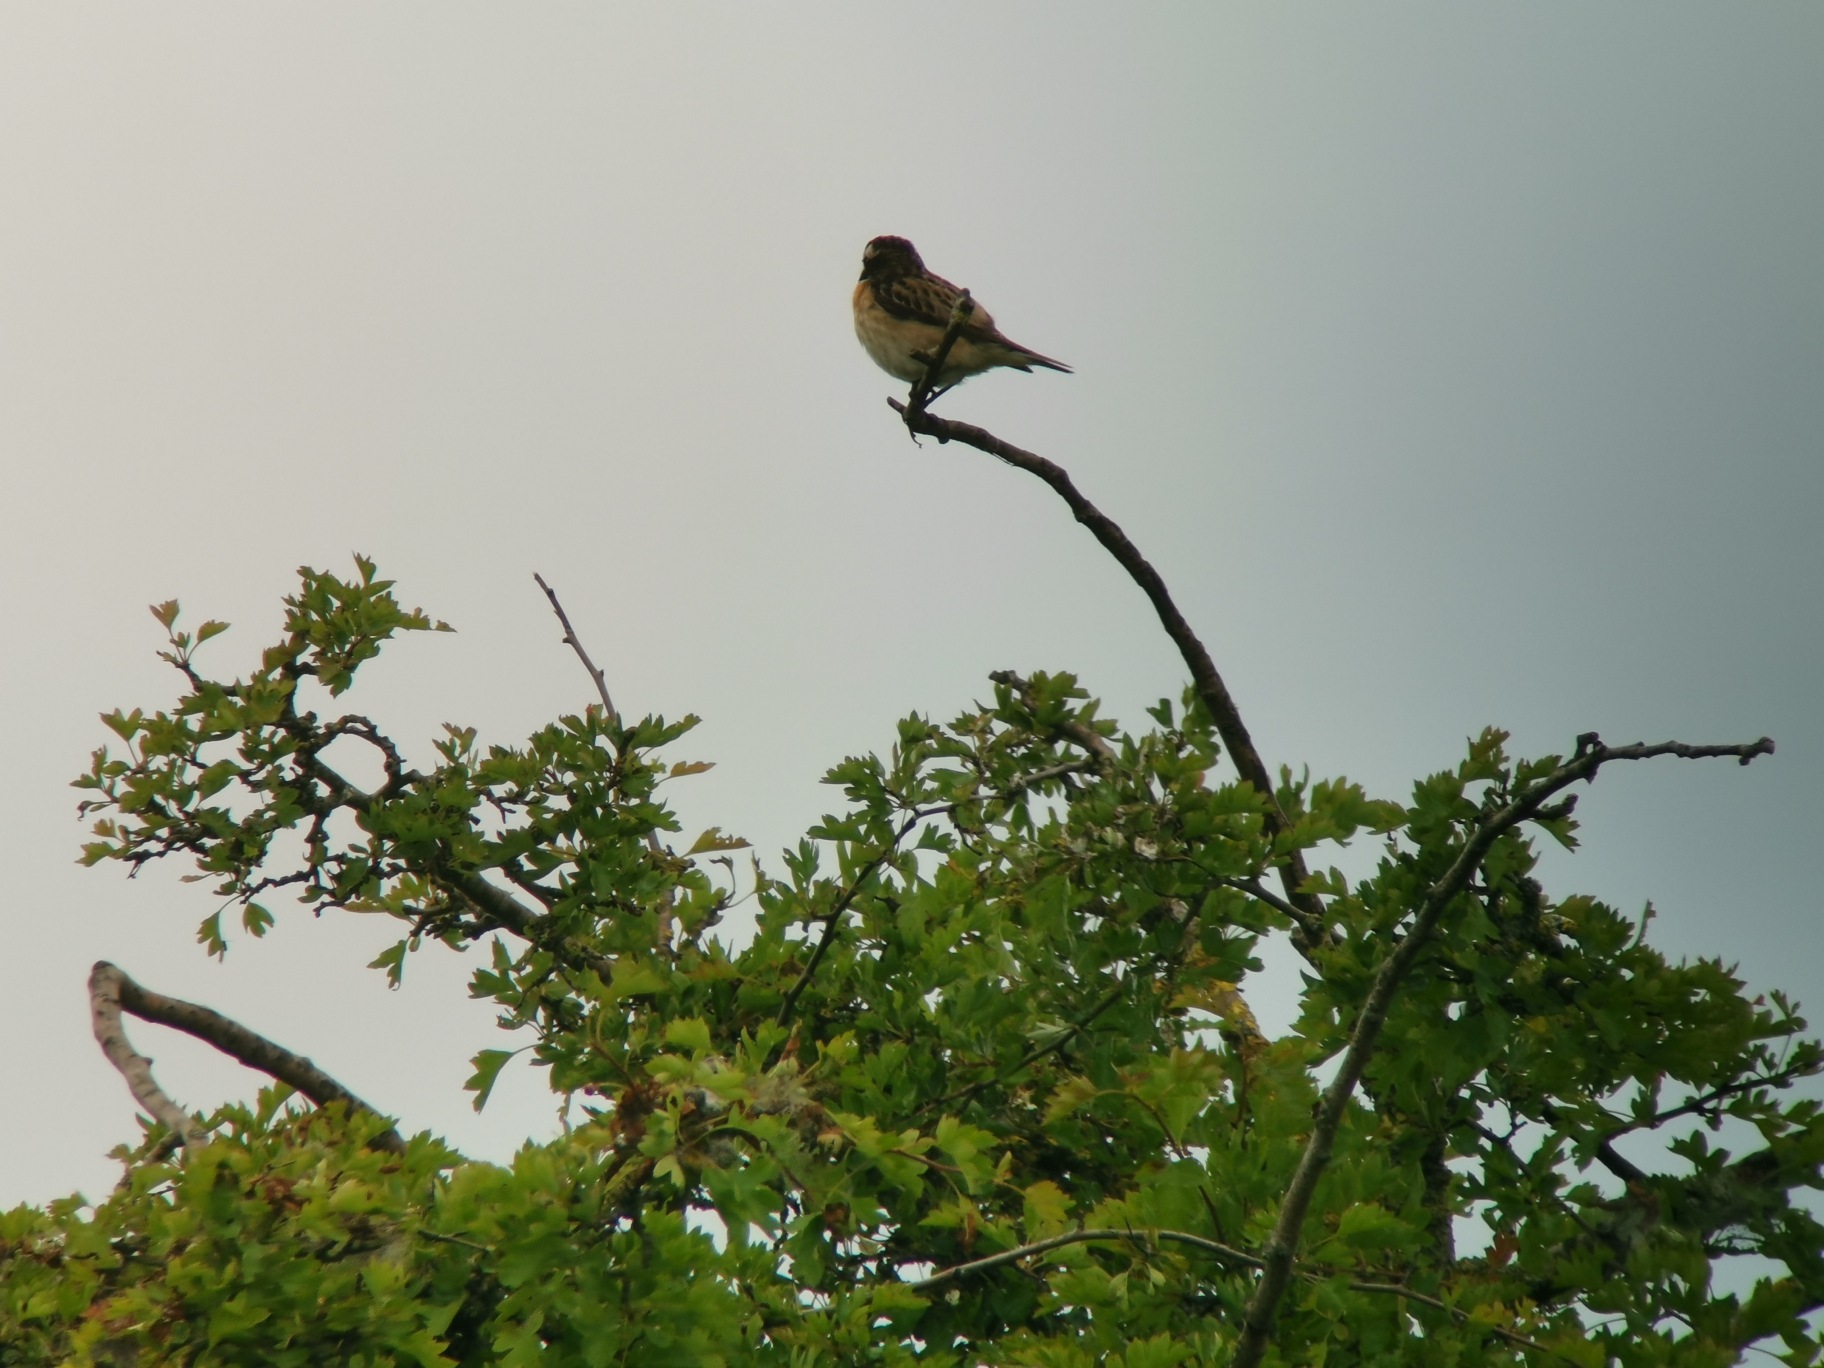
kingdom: Animalia
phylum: Chordata
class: Aves
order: Passeriformes
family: Muscicapidae
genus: Saxicola
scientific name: Saxicola rubetra
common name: Bynkefugl
